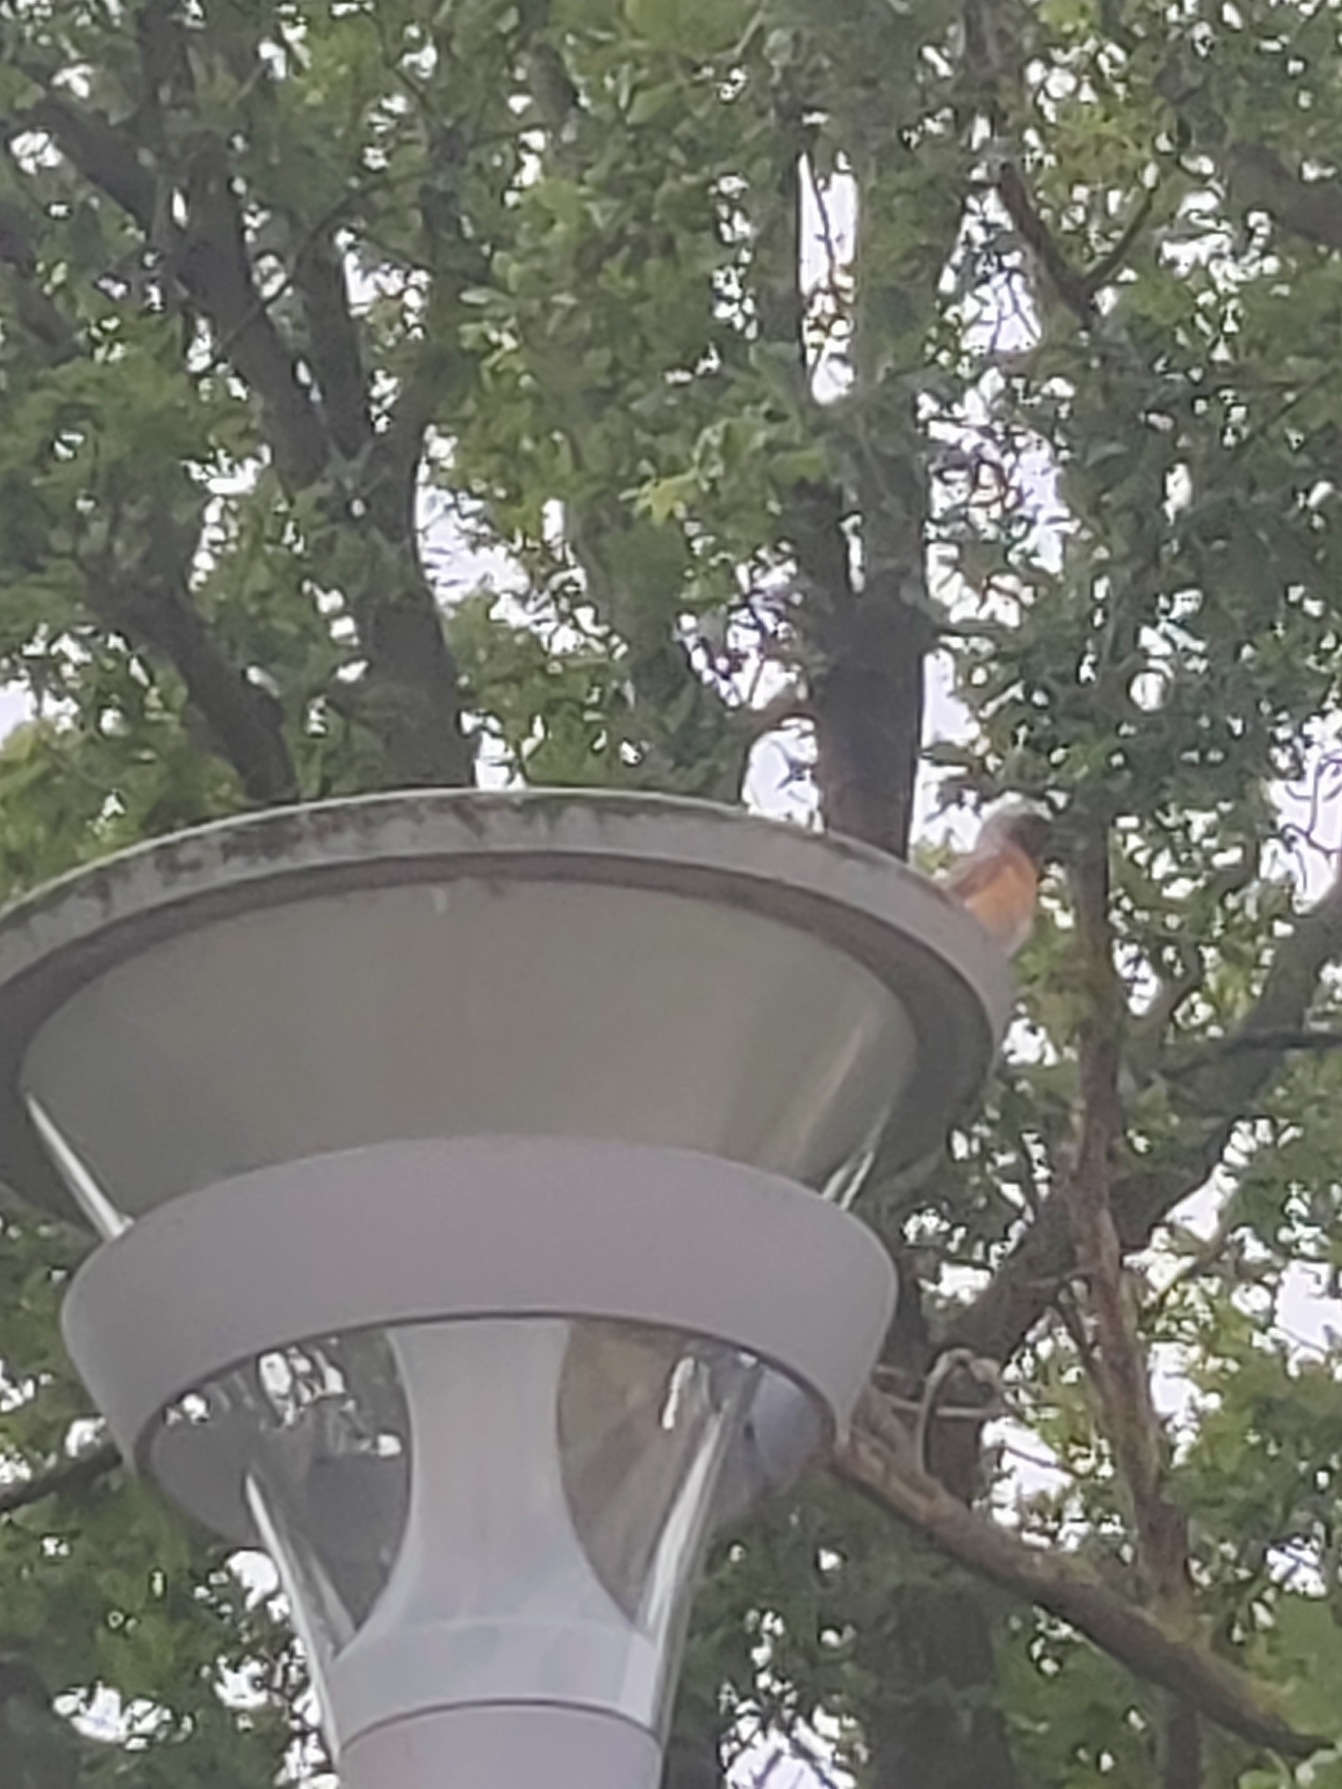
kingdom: Animalia
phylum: Chordata
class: Aves
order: Passeriformes
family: Muscicapidae
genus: Phoenicurus
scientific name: Phoenicurus phoenicurus
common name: Rødstjert
